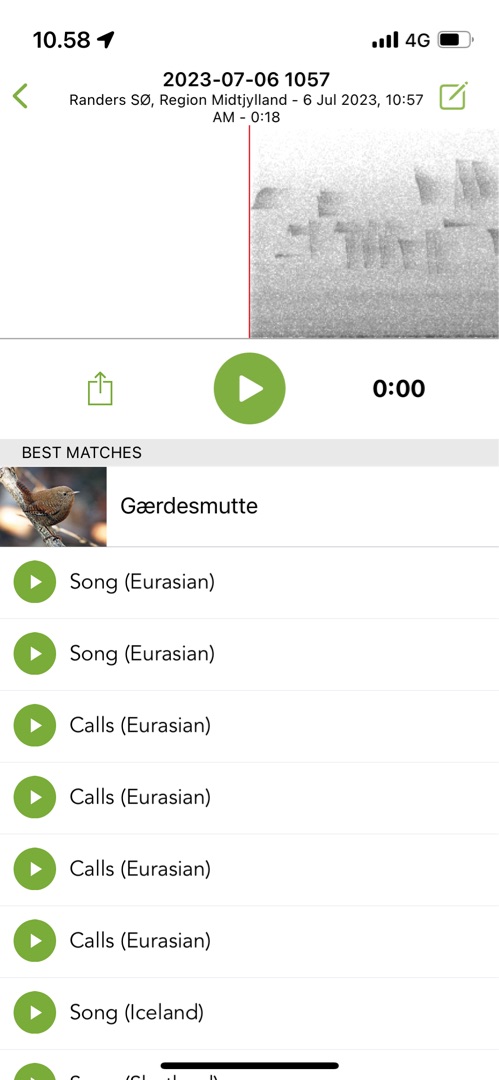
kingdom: Animalia
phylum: Chordata
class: Aves
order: Passeriformes
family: Troglodytidae
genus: Troglodytes
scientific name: Troglodytes troglodytes
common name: Gærdesmutte
